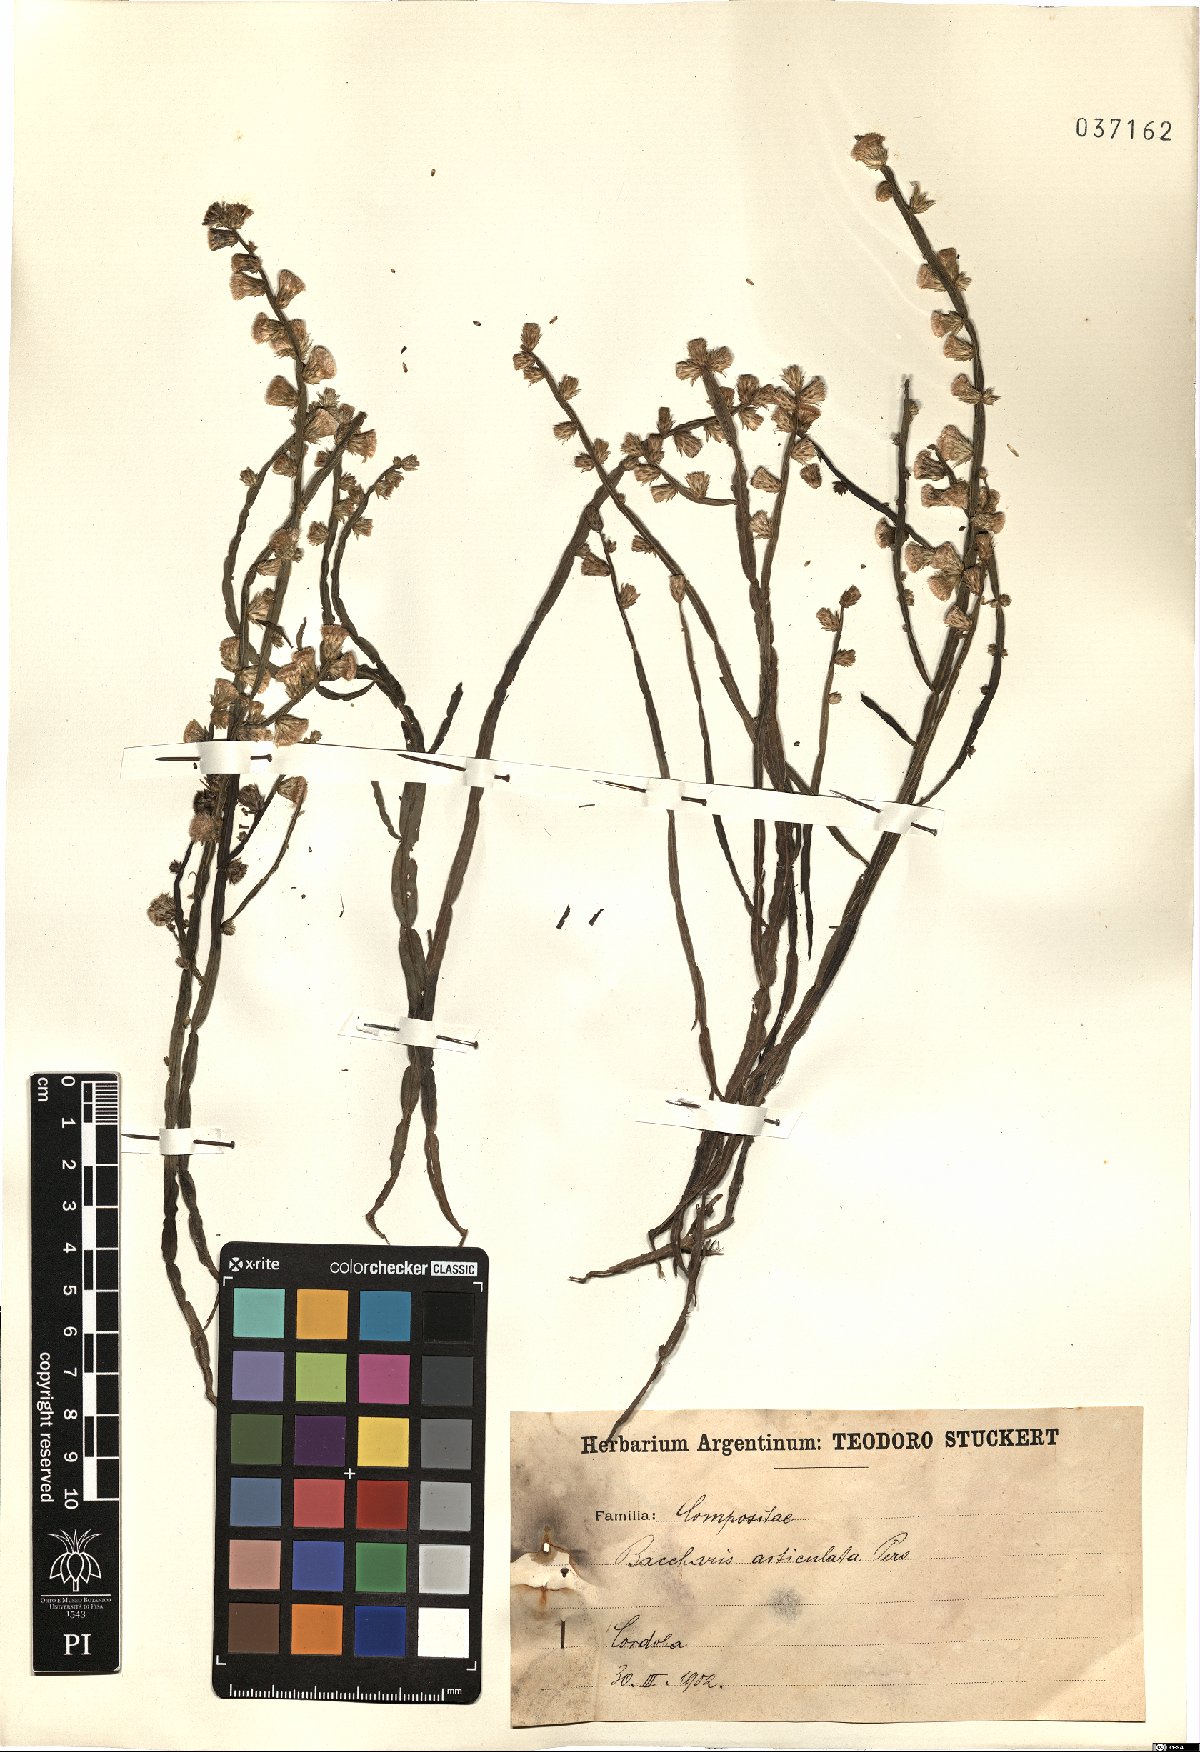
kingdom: Plantae
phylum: Tracheophyta
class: Magnoliopsida
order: Asterales
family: Asteraceae
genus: Baccharis
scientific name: Baccharis articulata
